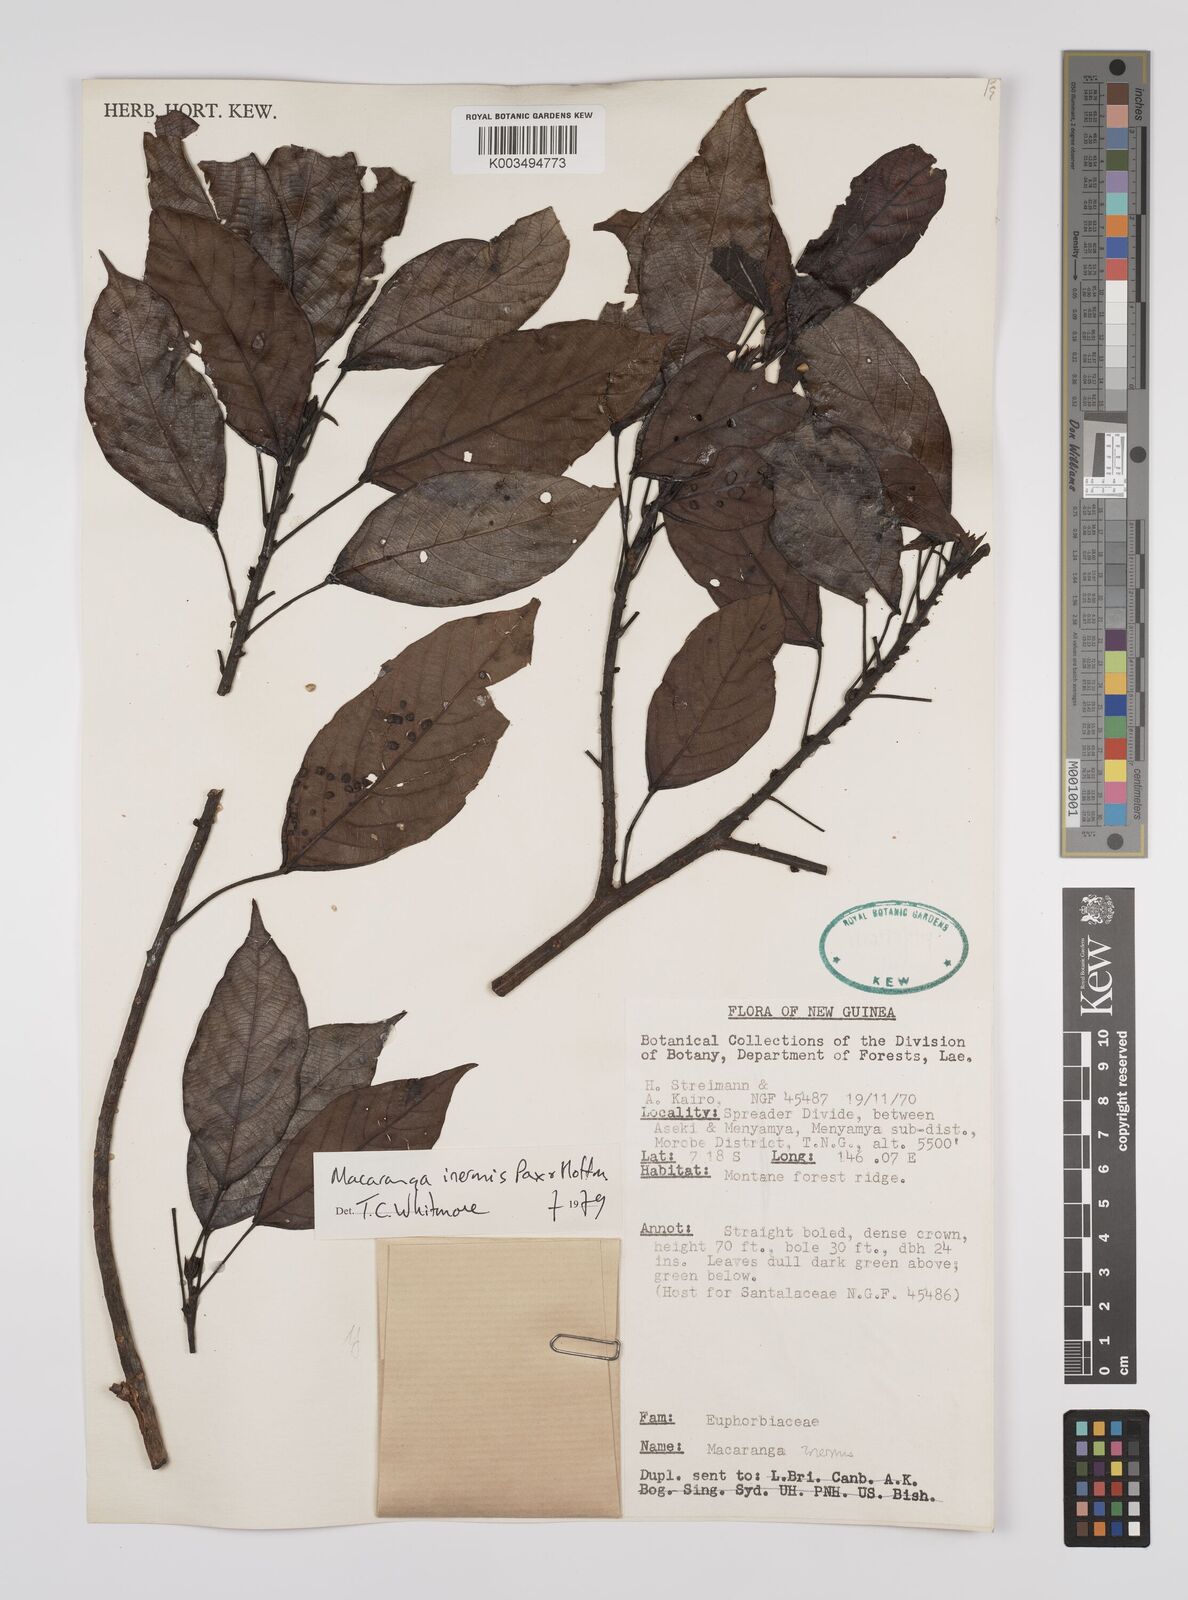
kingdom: Plantae
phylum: Tracheophyta
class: Magnoliopsida
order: Malpighiales
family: Euphorbiaceae
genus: Macaranga
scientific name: Macaranga inermis
